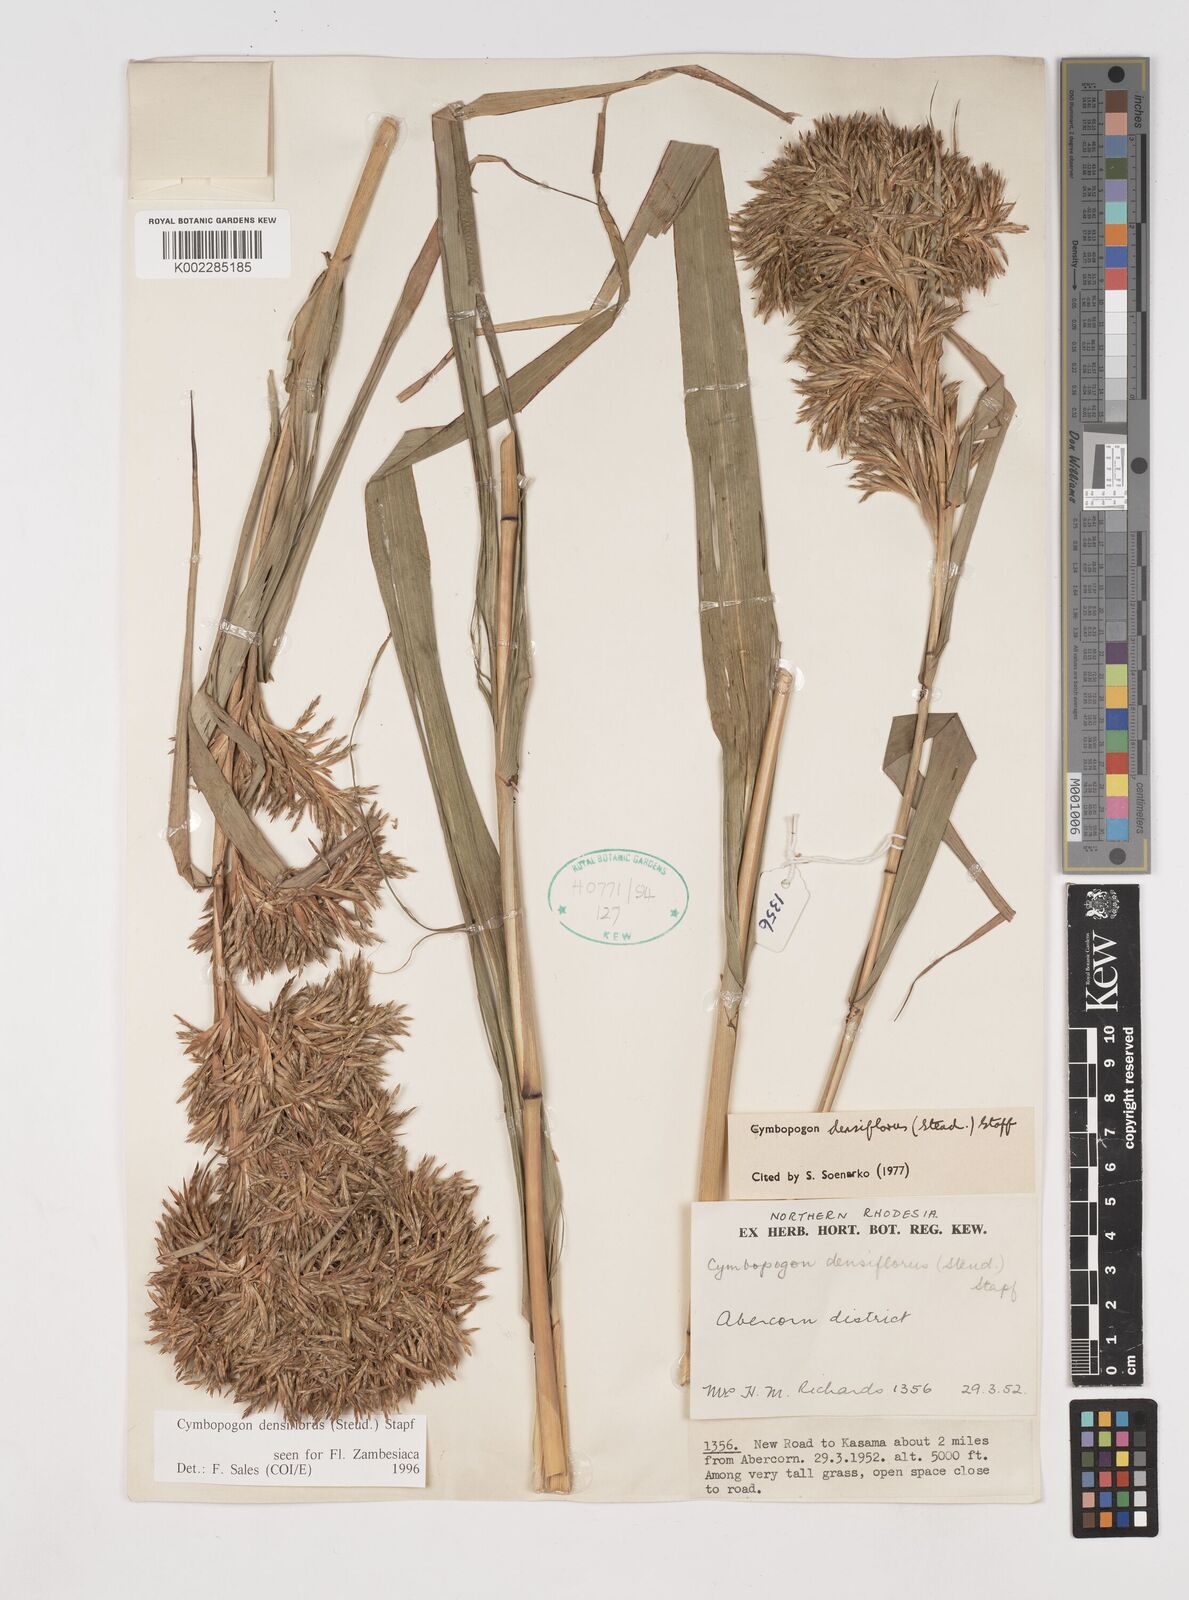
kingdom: Plantae
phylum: Tracheophyta
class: Liliopsida
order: Poales
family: Poaceae
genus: Cymbopogon
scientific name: Cymbopogon densiflorus
